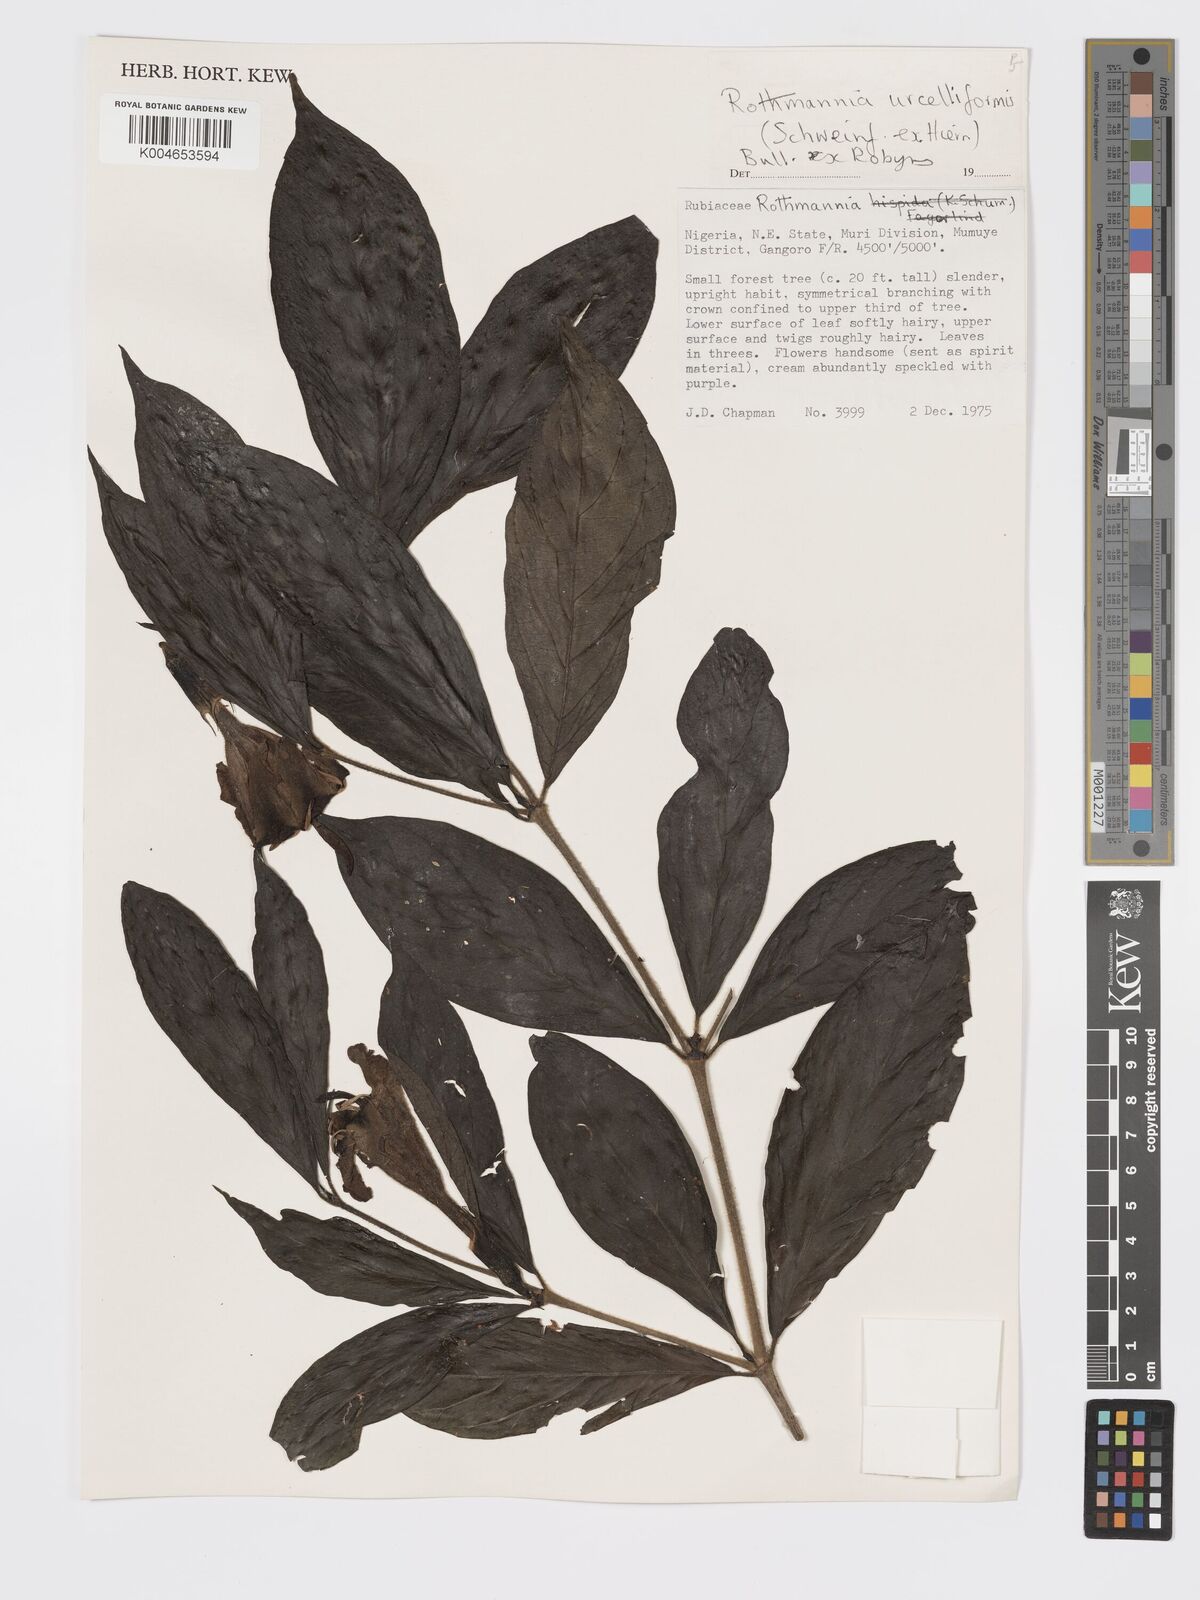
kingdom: Plantae
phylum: Tracheophyta
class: Magnoliopsida
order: Gentianales
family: Rubiaceae
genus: Rothmannia
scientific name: Rothmannia urcelliformis
